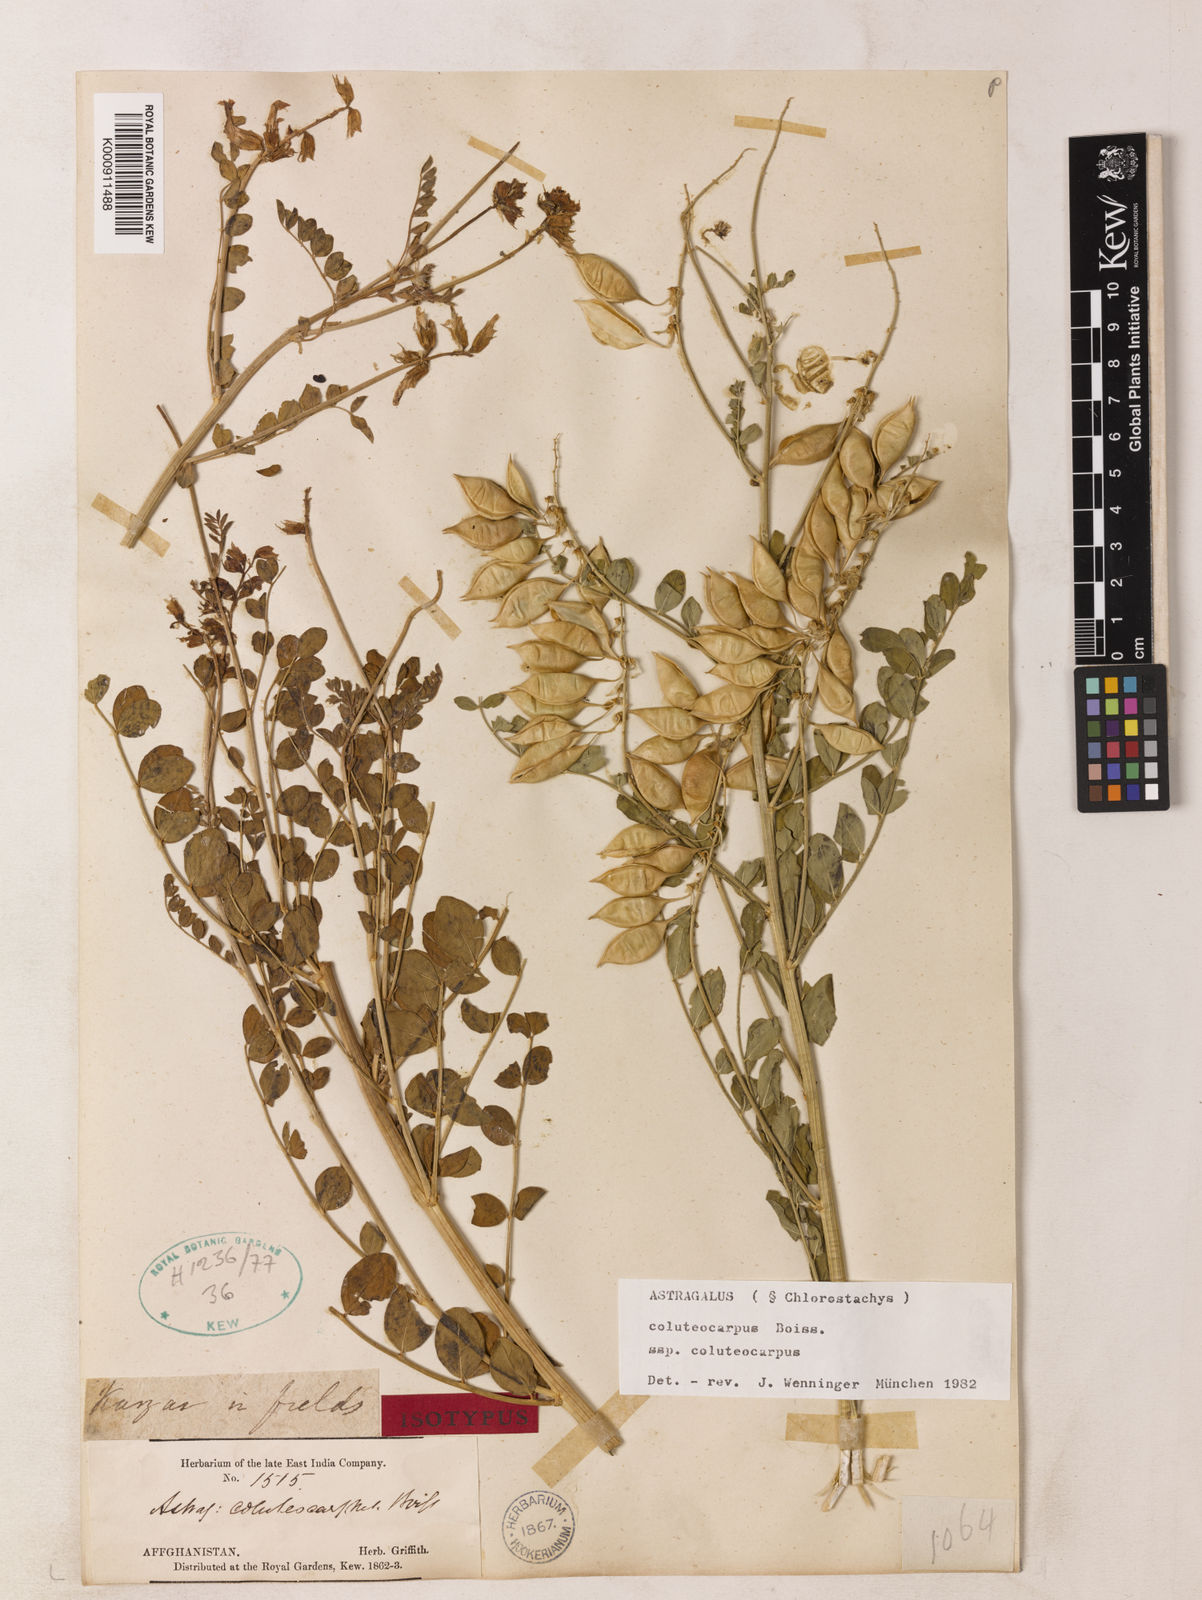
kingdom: Plantae
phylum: Tracheophyta
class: Magnoliopsida
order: Fabales
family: Fabaceae
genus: Astragalus
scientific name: Astragalus coluteocarpus
